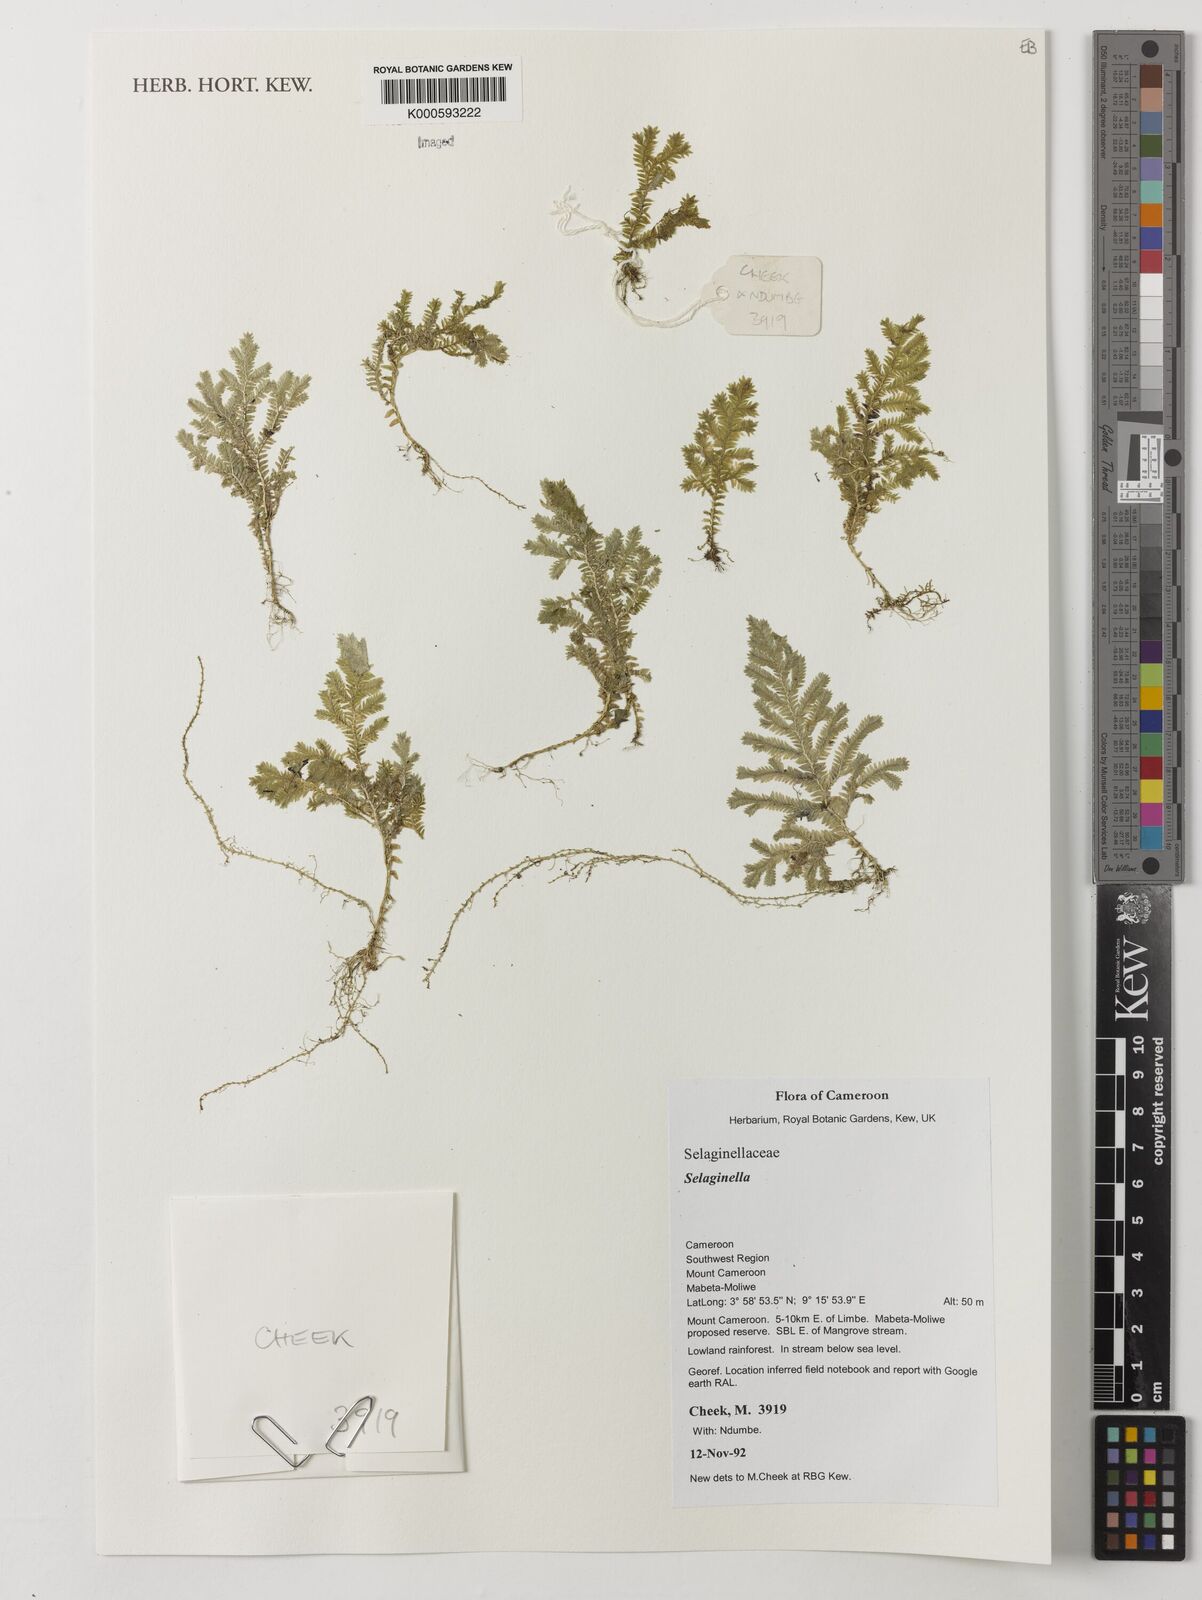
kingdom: Plantae
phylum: Tracheophyta
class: Lycopodiopsida
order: Selaginellales
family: Selaginellaceae
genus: Selaginella
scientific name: Selaginella
